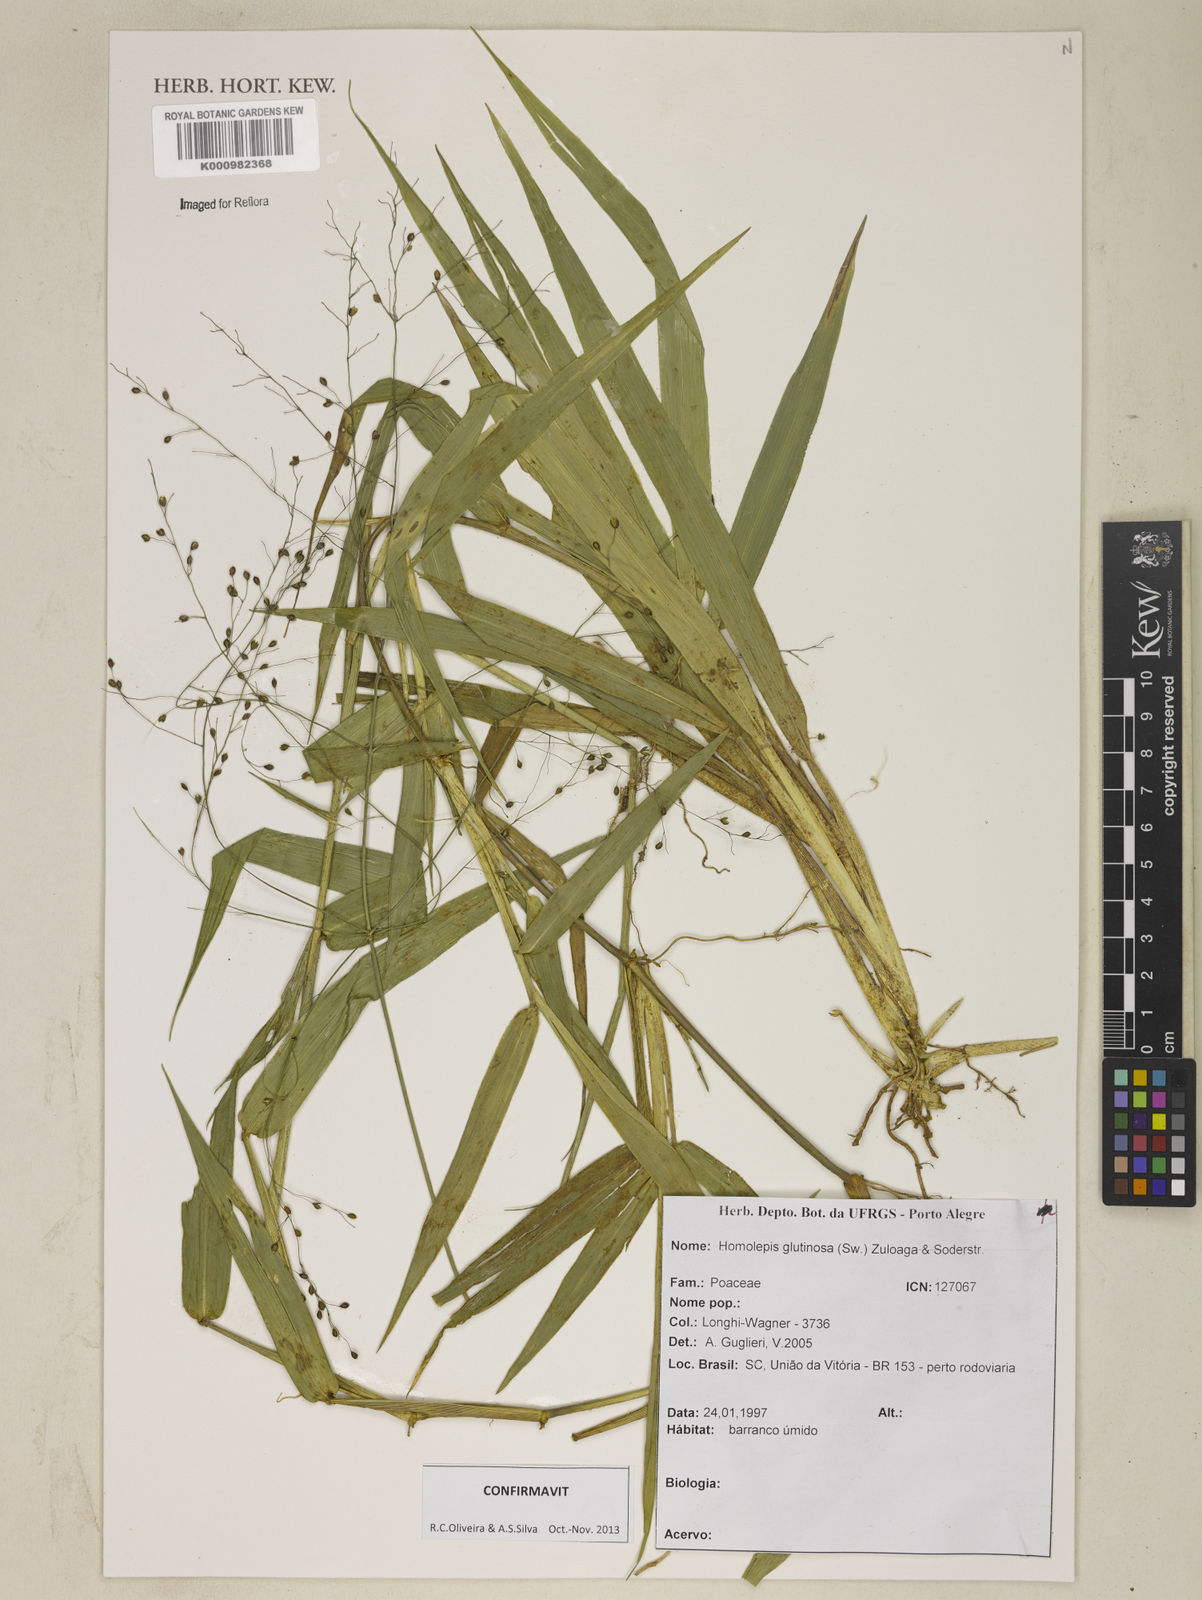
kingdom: Plantae
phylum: Tracheophyta
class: Liliopsida
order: Poales
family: Poaceae
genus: Homolepis
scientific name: Homolepis glutinosa
